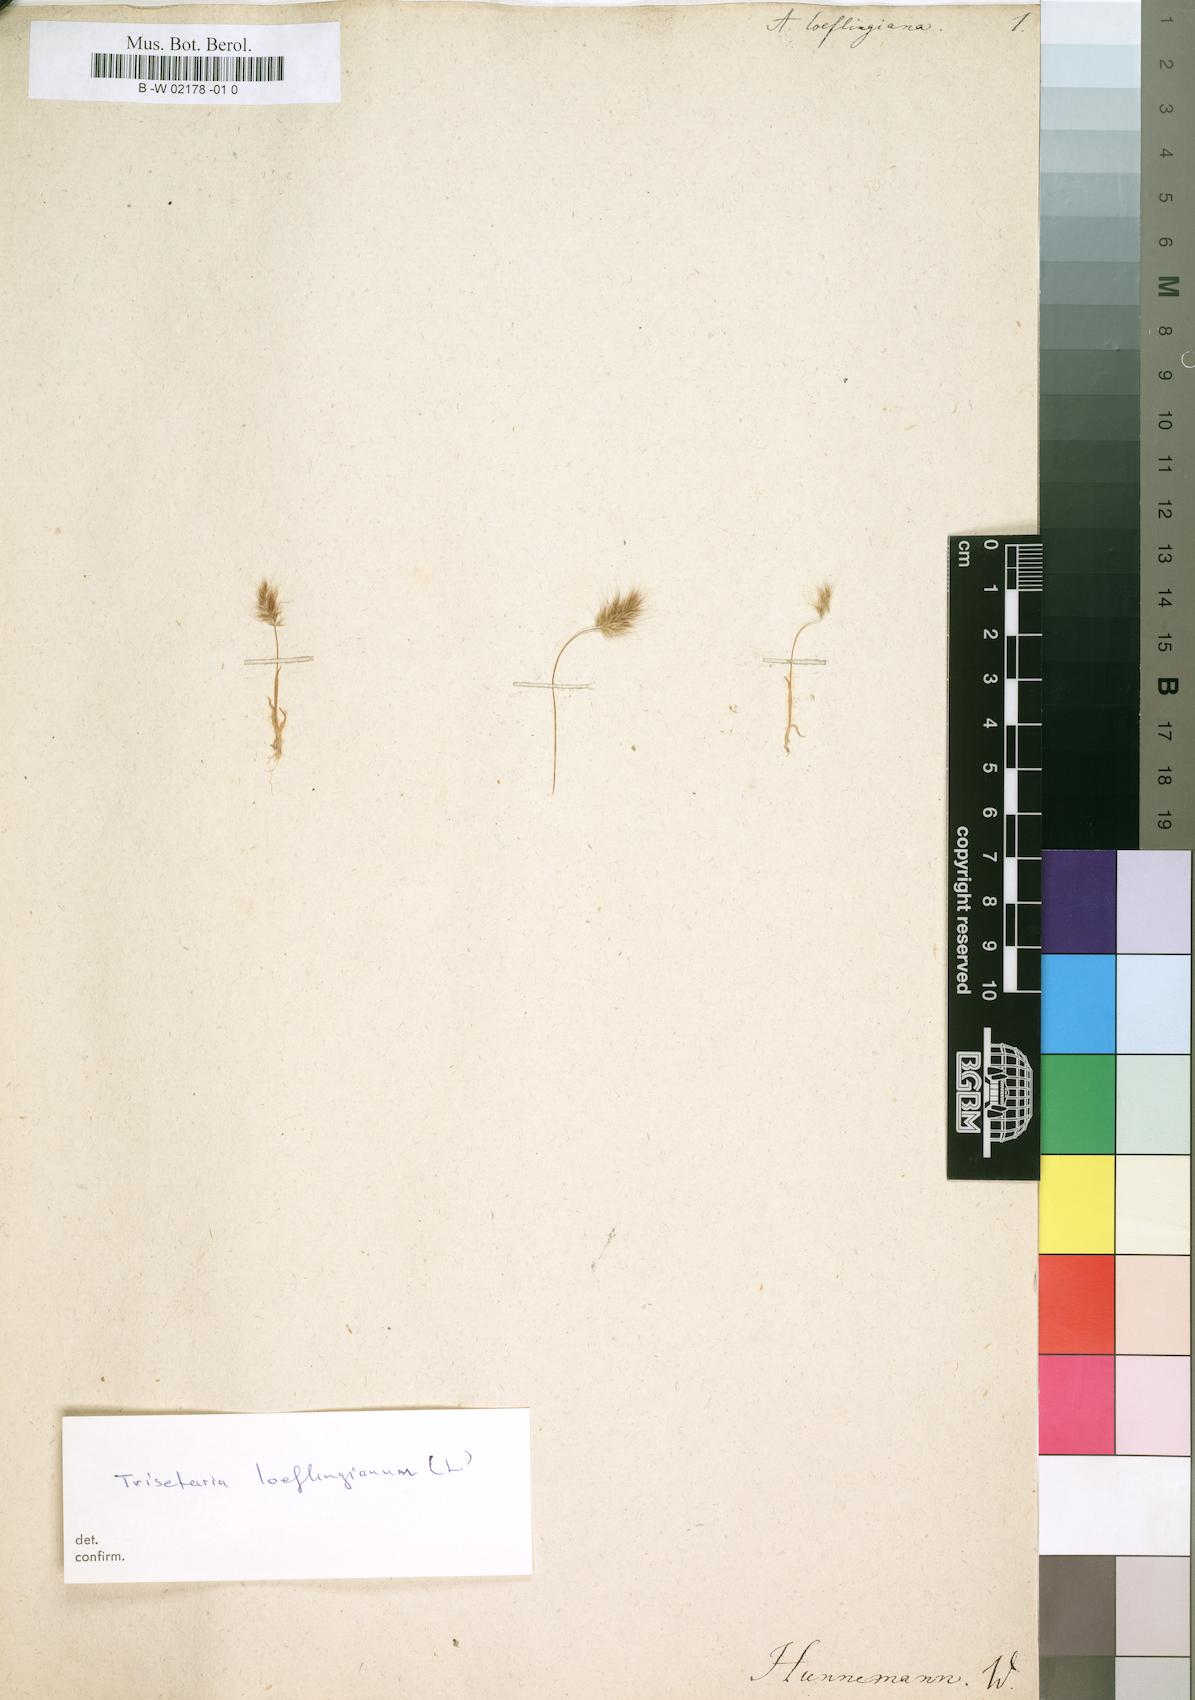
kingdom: Plantae
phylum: Tracheophyta
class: Liliopsida
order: Poales
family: Poaceae
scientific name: Poaceae
